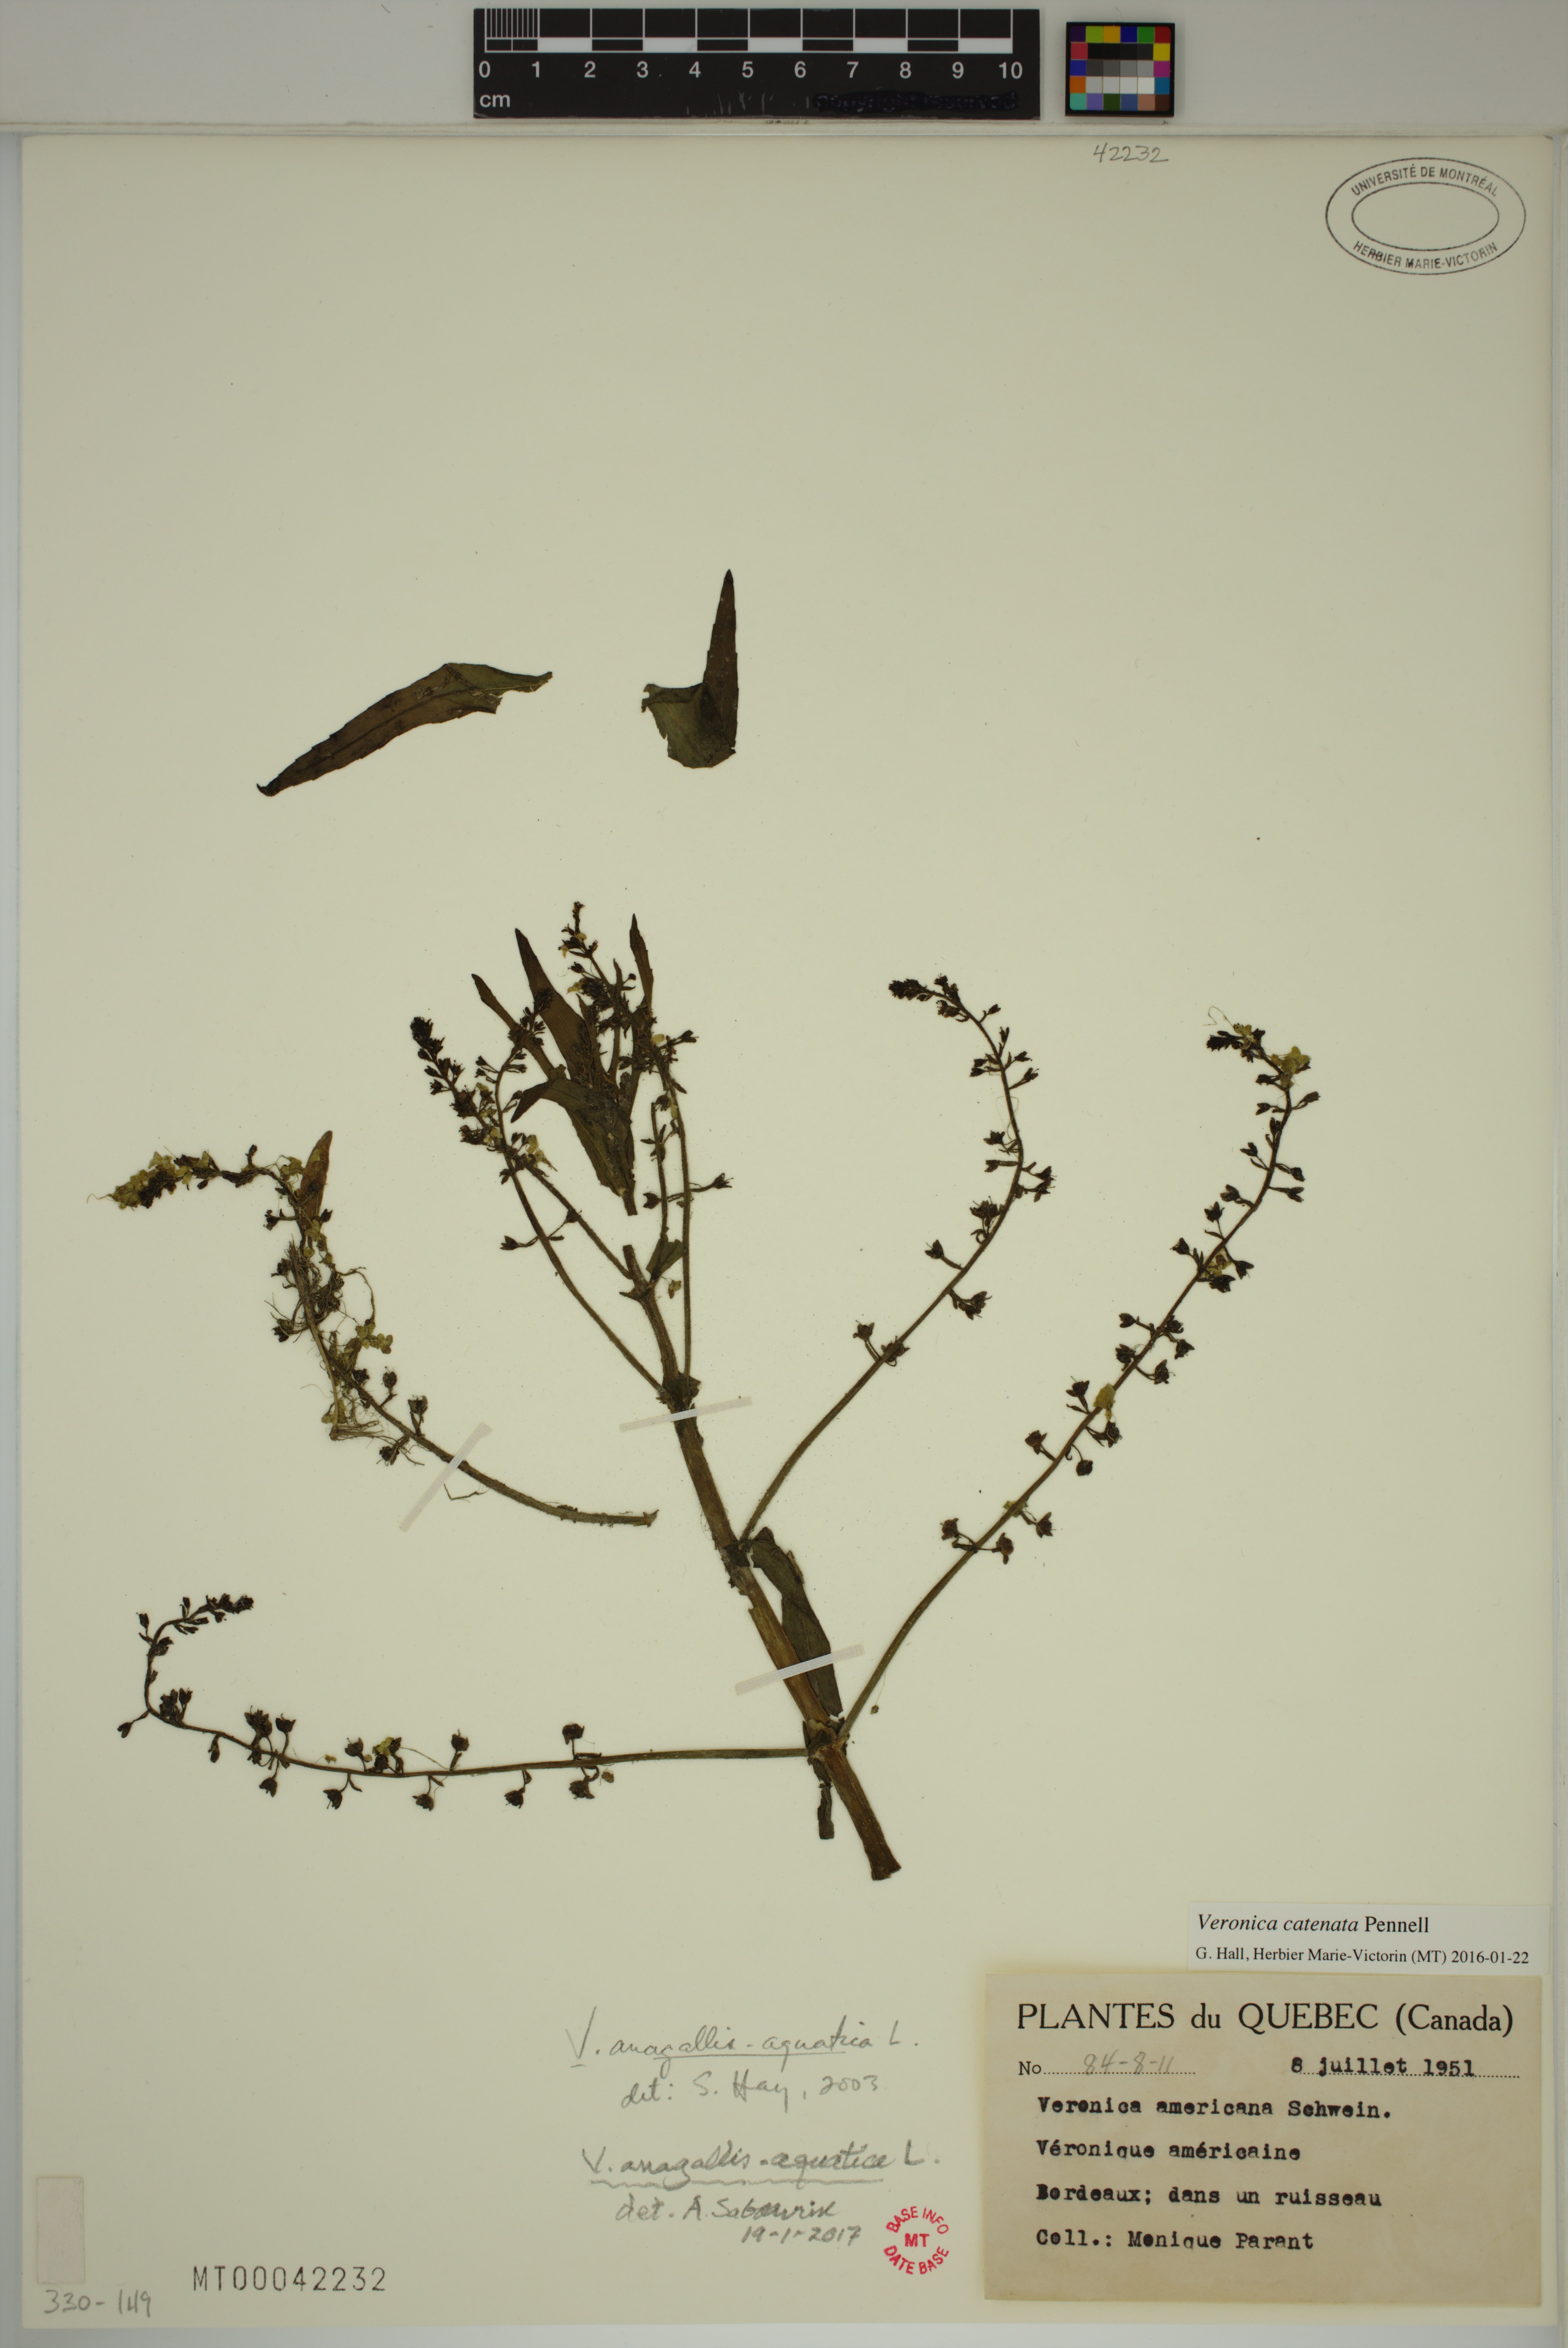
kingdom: Plantae
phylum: Tracheophyta
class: Magnoliopsida
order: Lamiales
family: Plantaginaceae
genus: Veronica
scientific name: Veronica anagallis-aquatica
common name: Water speedwell
